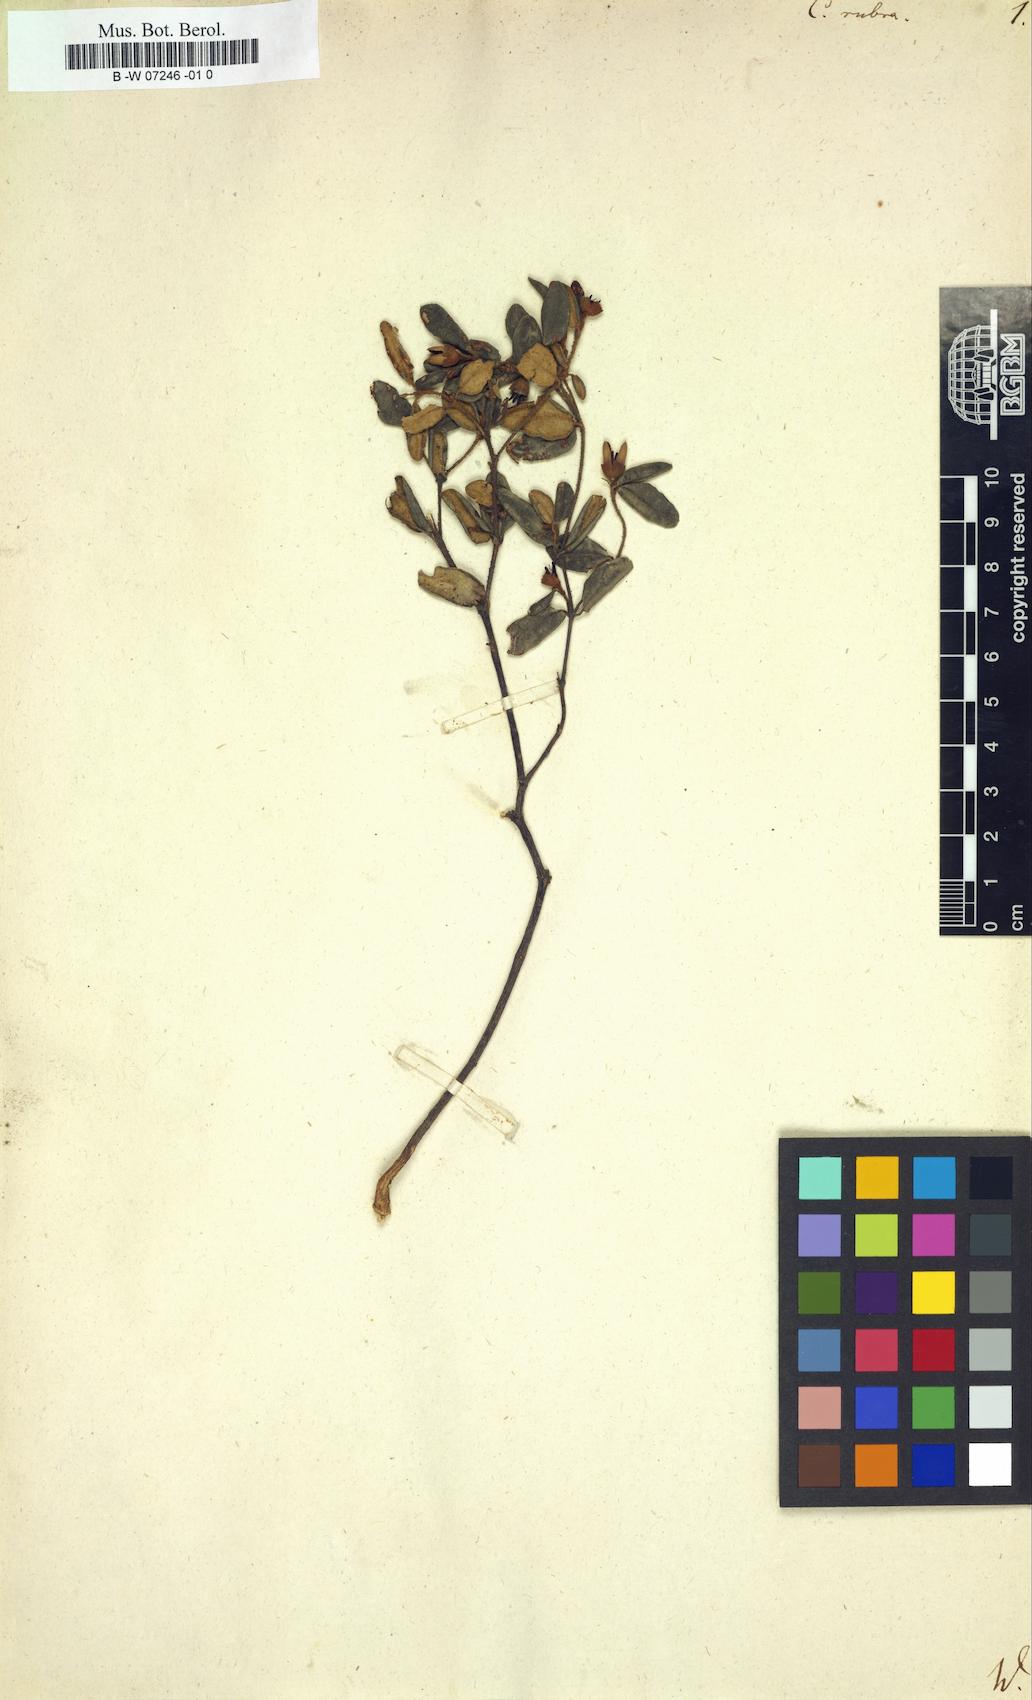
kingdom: Plantae
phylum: Tracheophyta
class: Magnoliopsida
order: Sapindales
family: Rutaceae
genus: Correa
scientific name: Correa rubra
